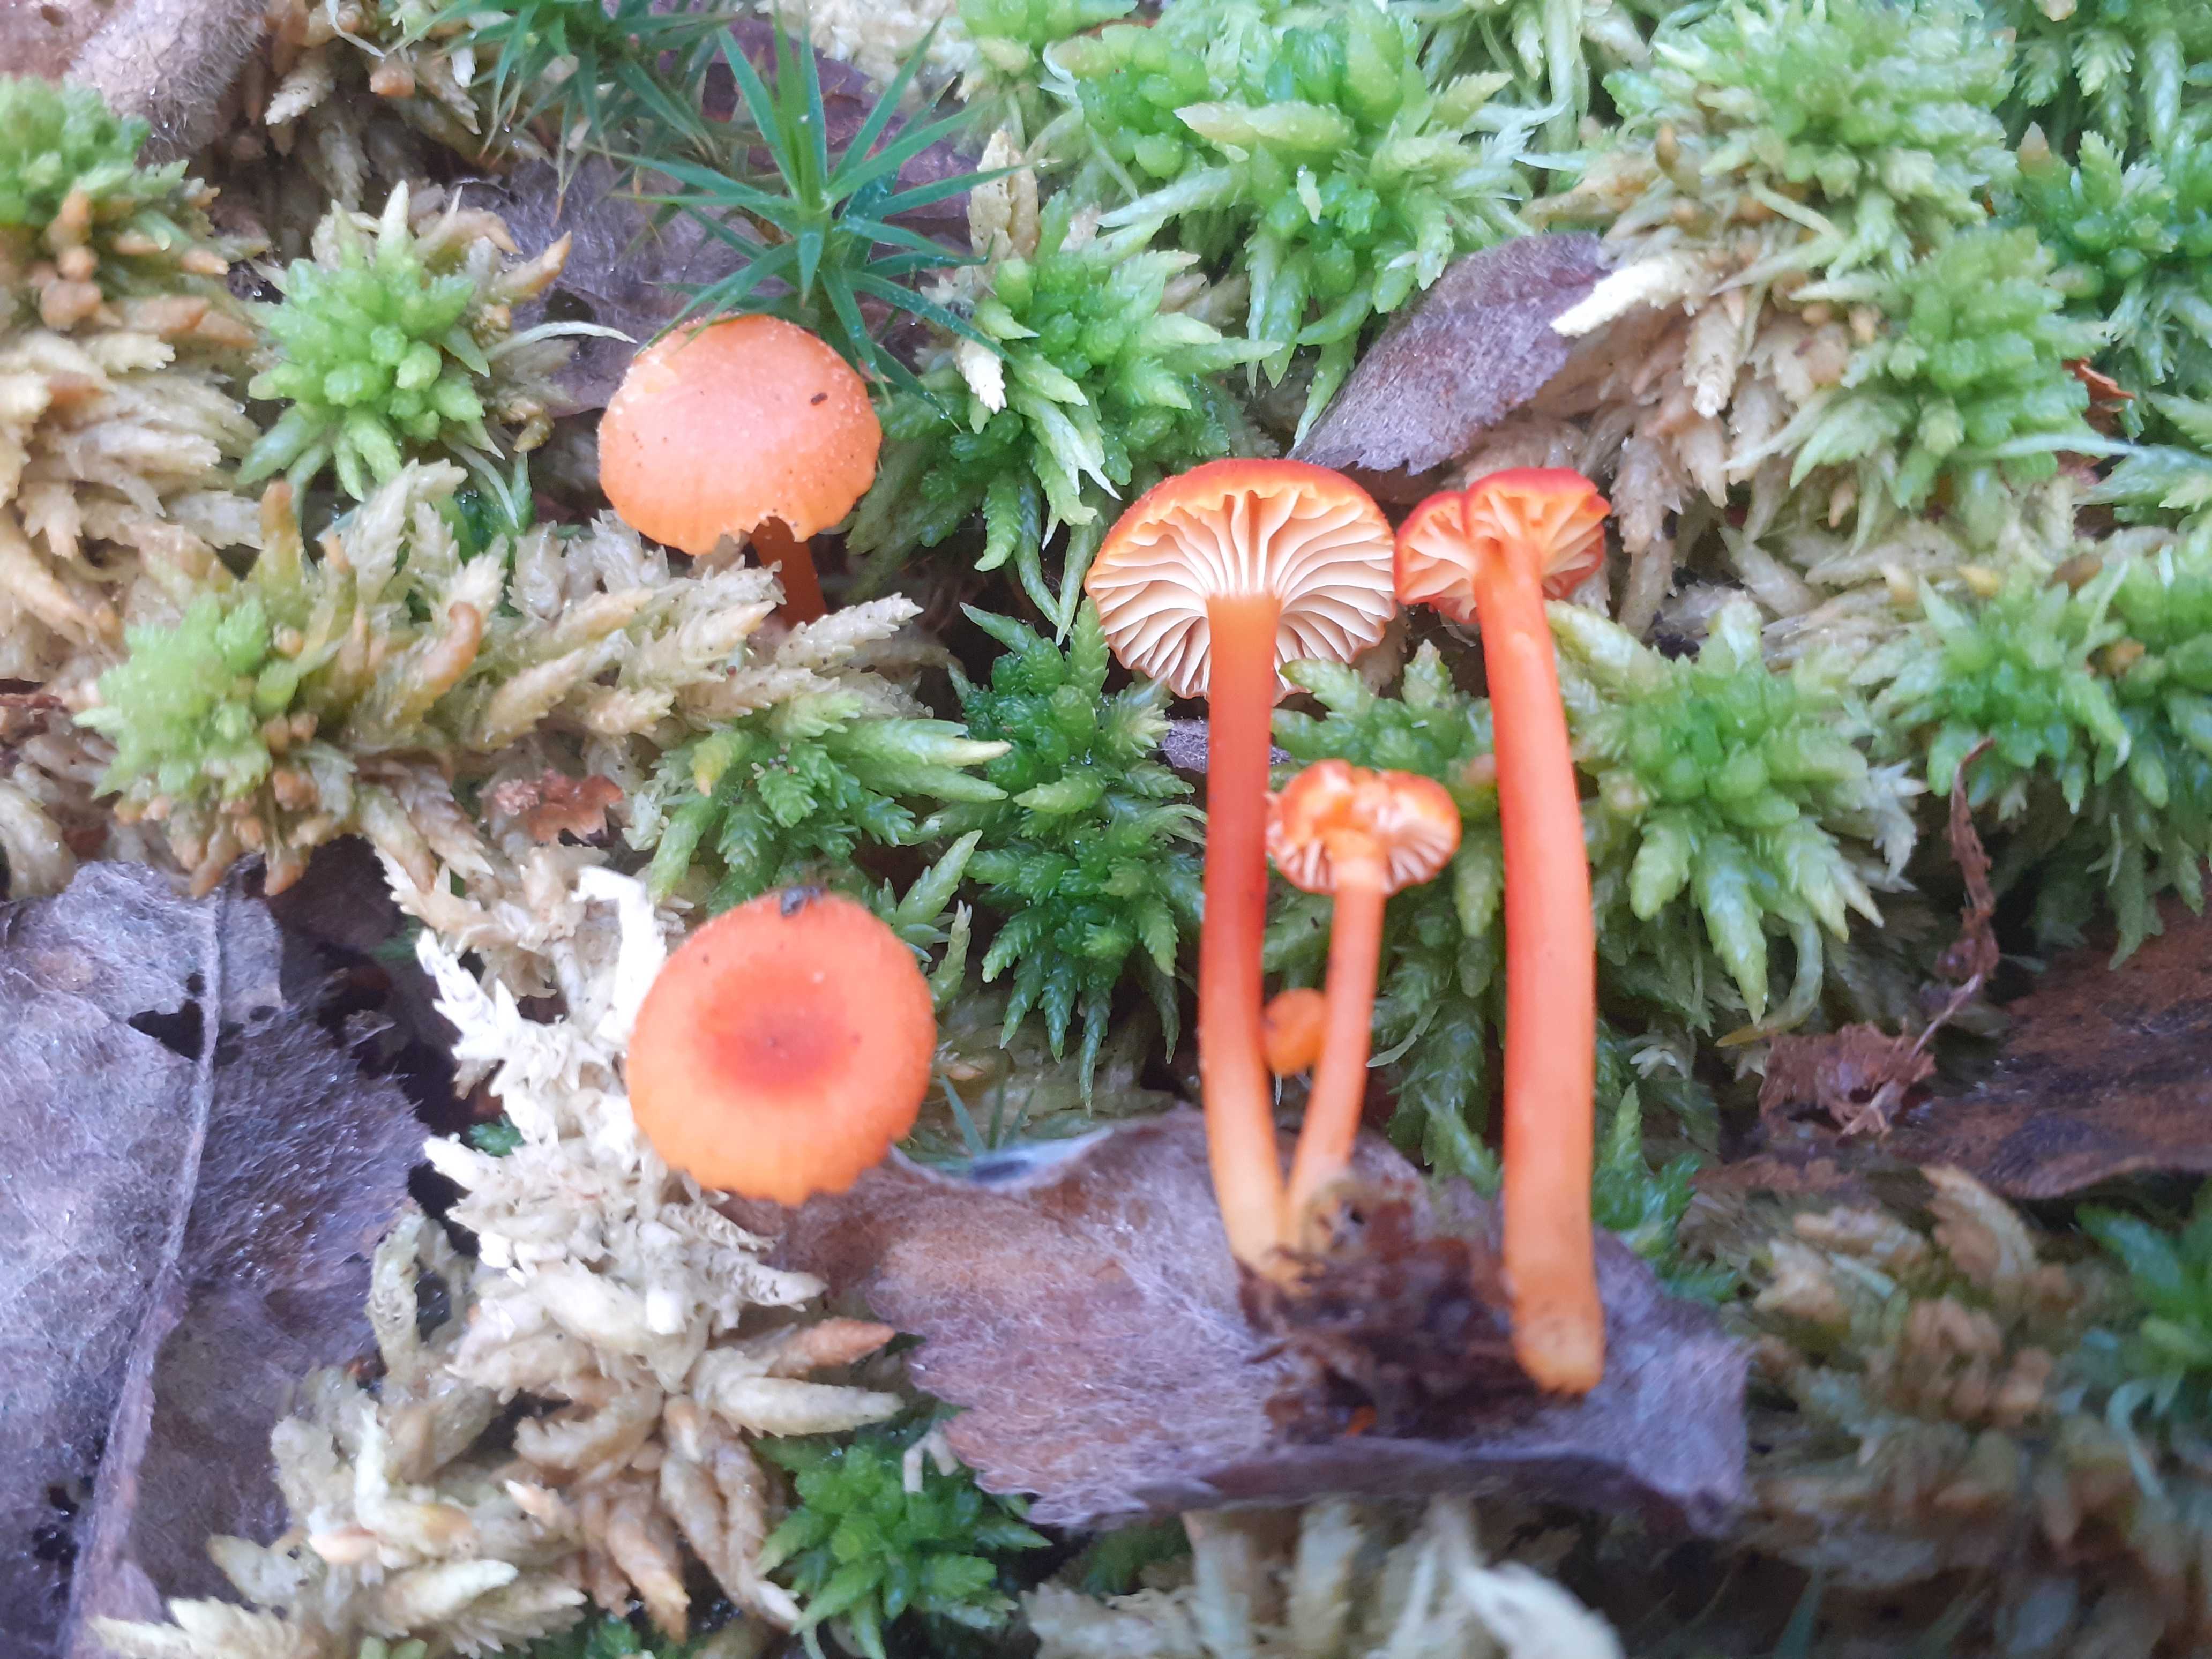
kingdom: Fungi
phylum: Basidiomycota
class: Agaricomycetes
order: Agaricales
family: Hygrophoraceae
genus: Hygrocybe
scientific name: Hygrocybe cantharellus
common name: kantarel-vokshat
